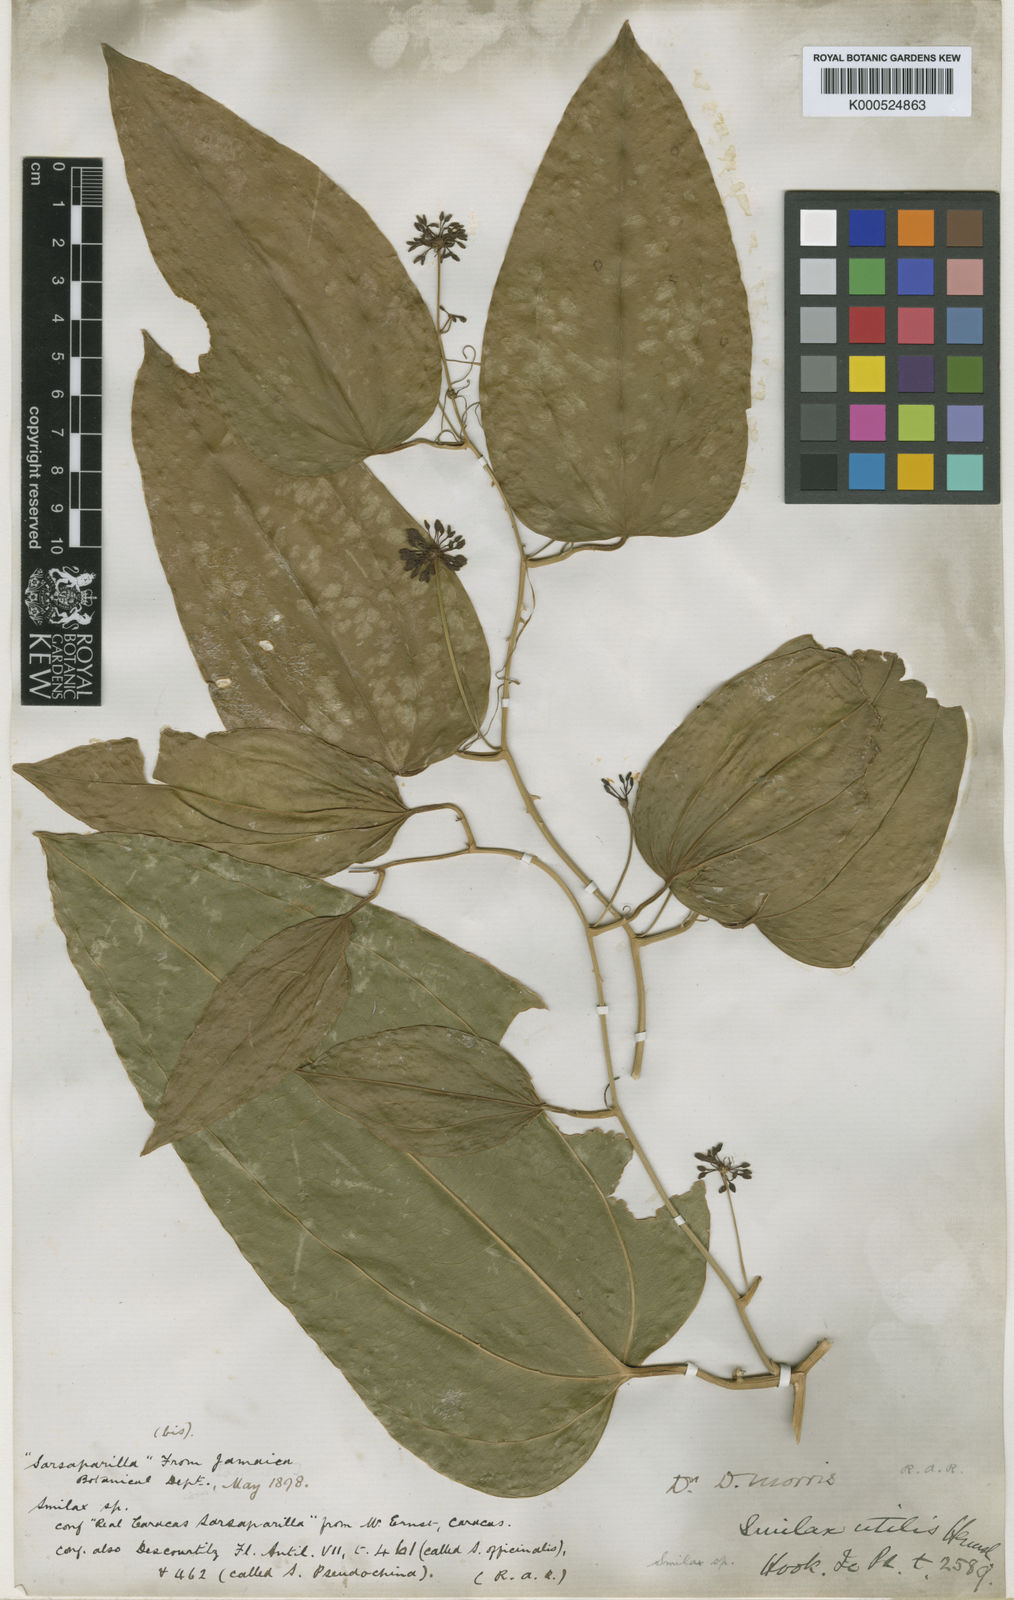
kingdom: Plantae
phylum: Tracheophyta
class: Liliopsida
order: Liliales
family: Smilacaceae
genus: Smilax
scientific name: Smilax ornata
